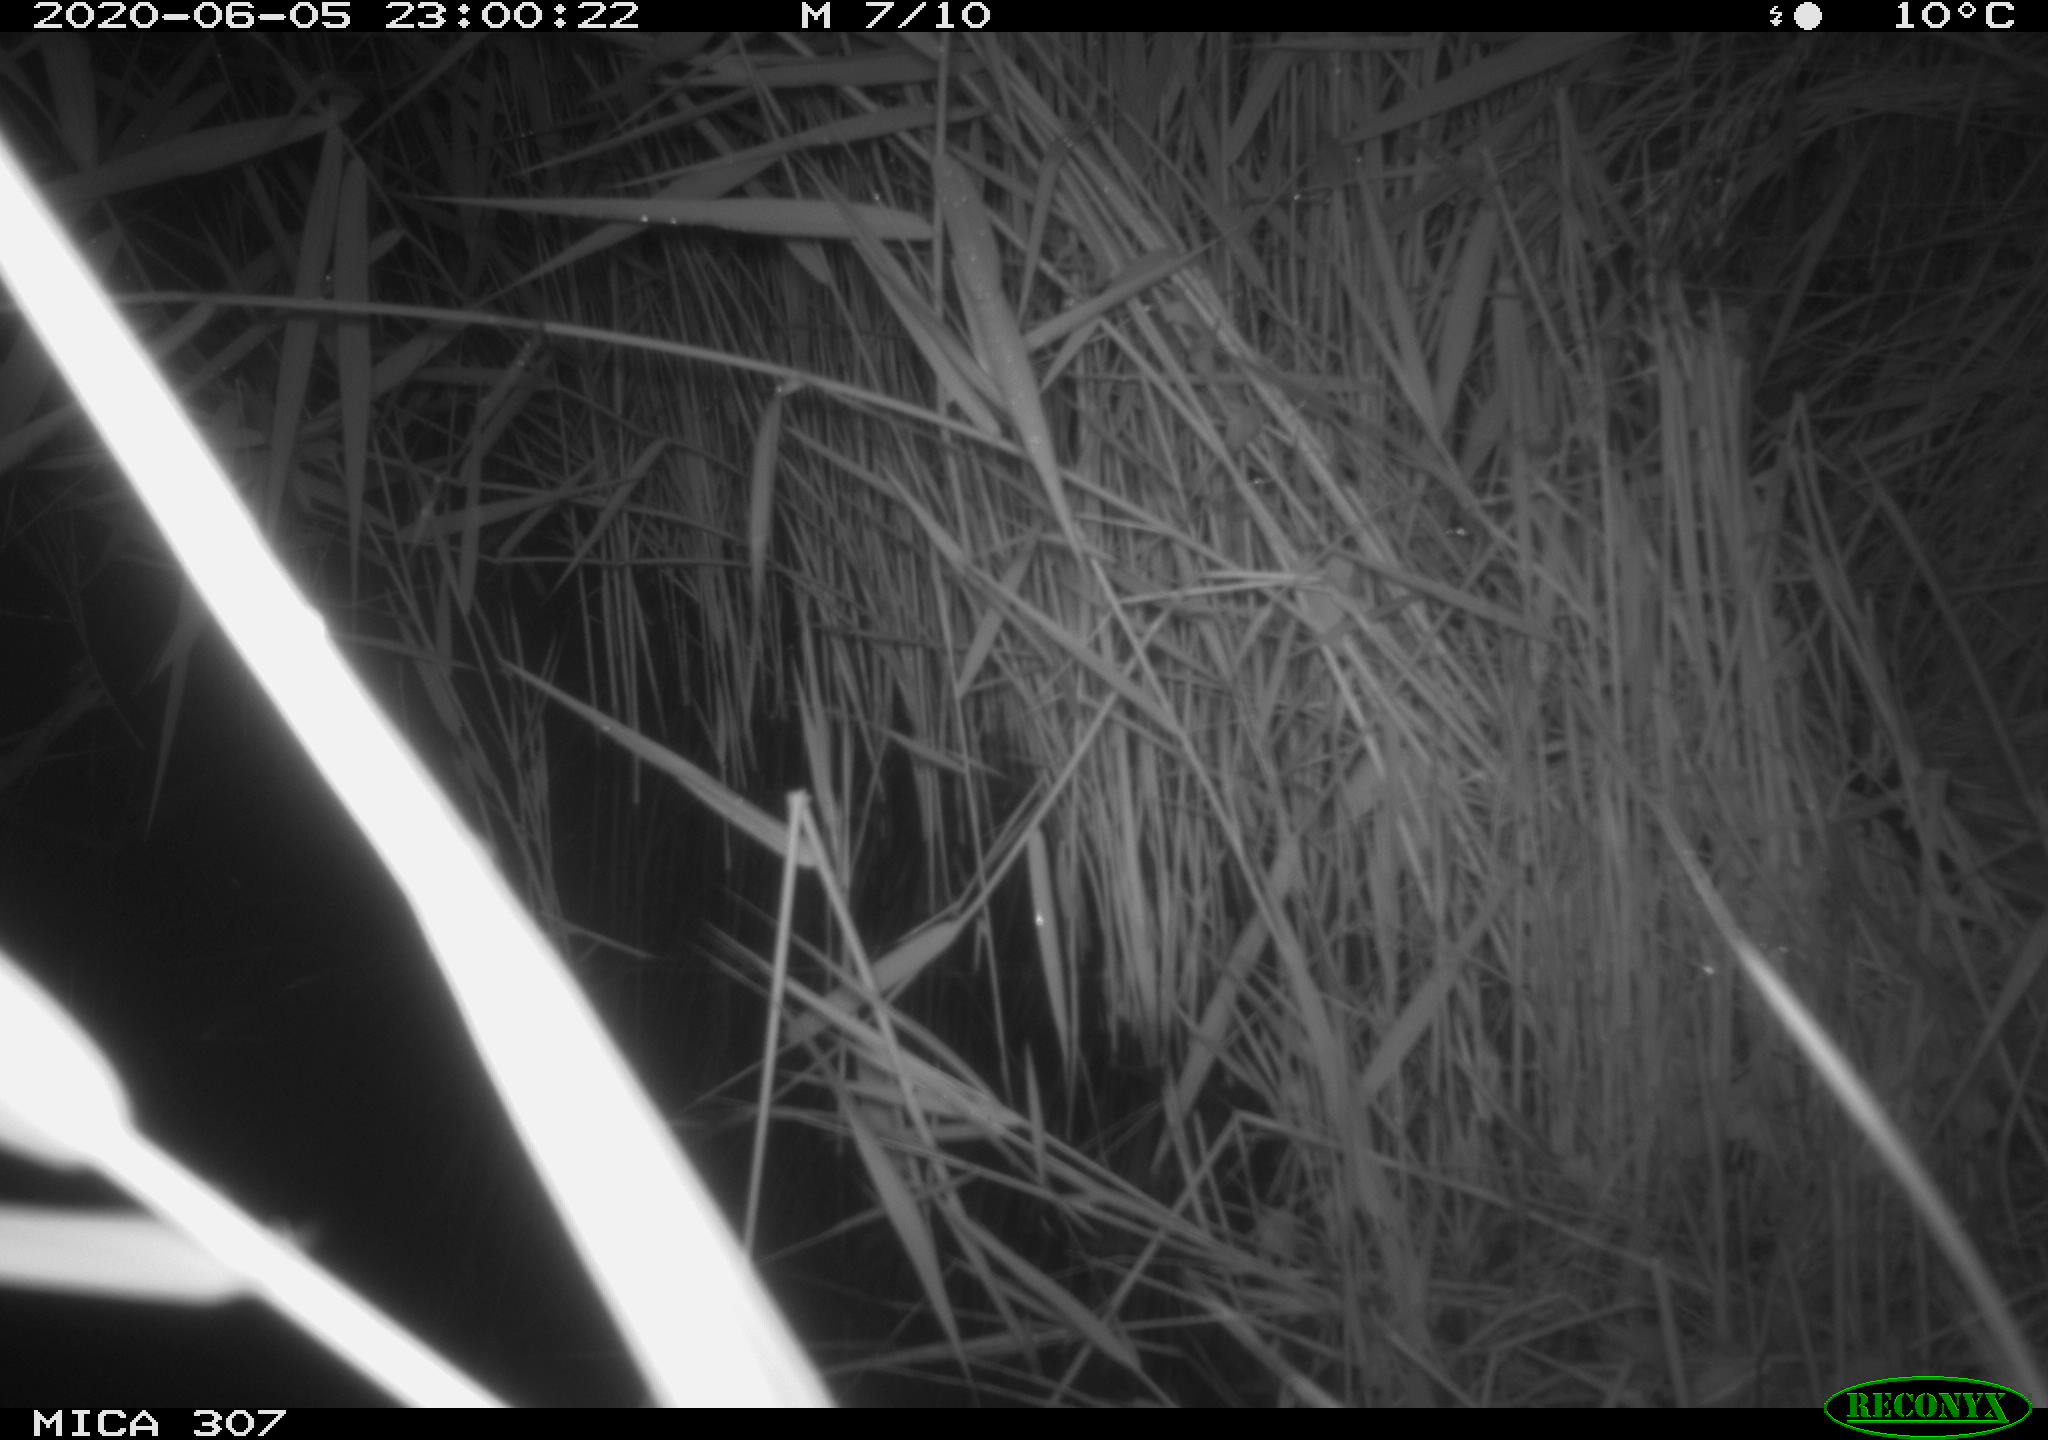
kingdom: Animalia
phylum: Chordata
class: Mammalia
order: Rodentia
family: Muridae
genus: Rattus
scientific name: Rattus norvegicus
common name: Brown rat
